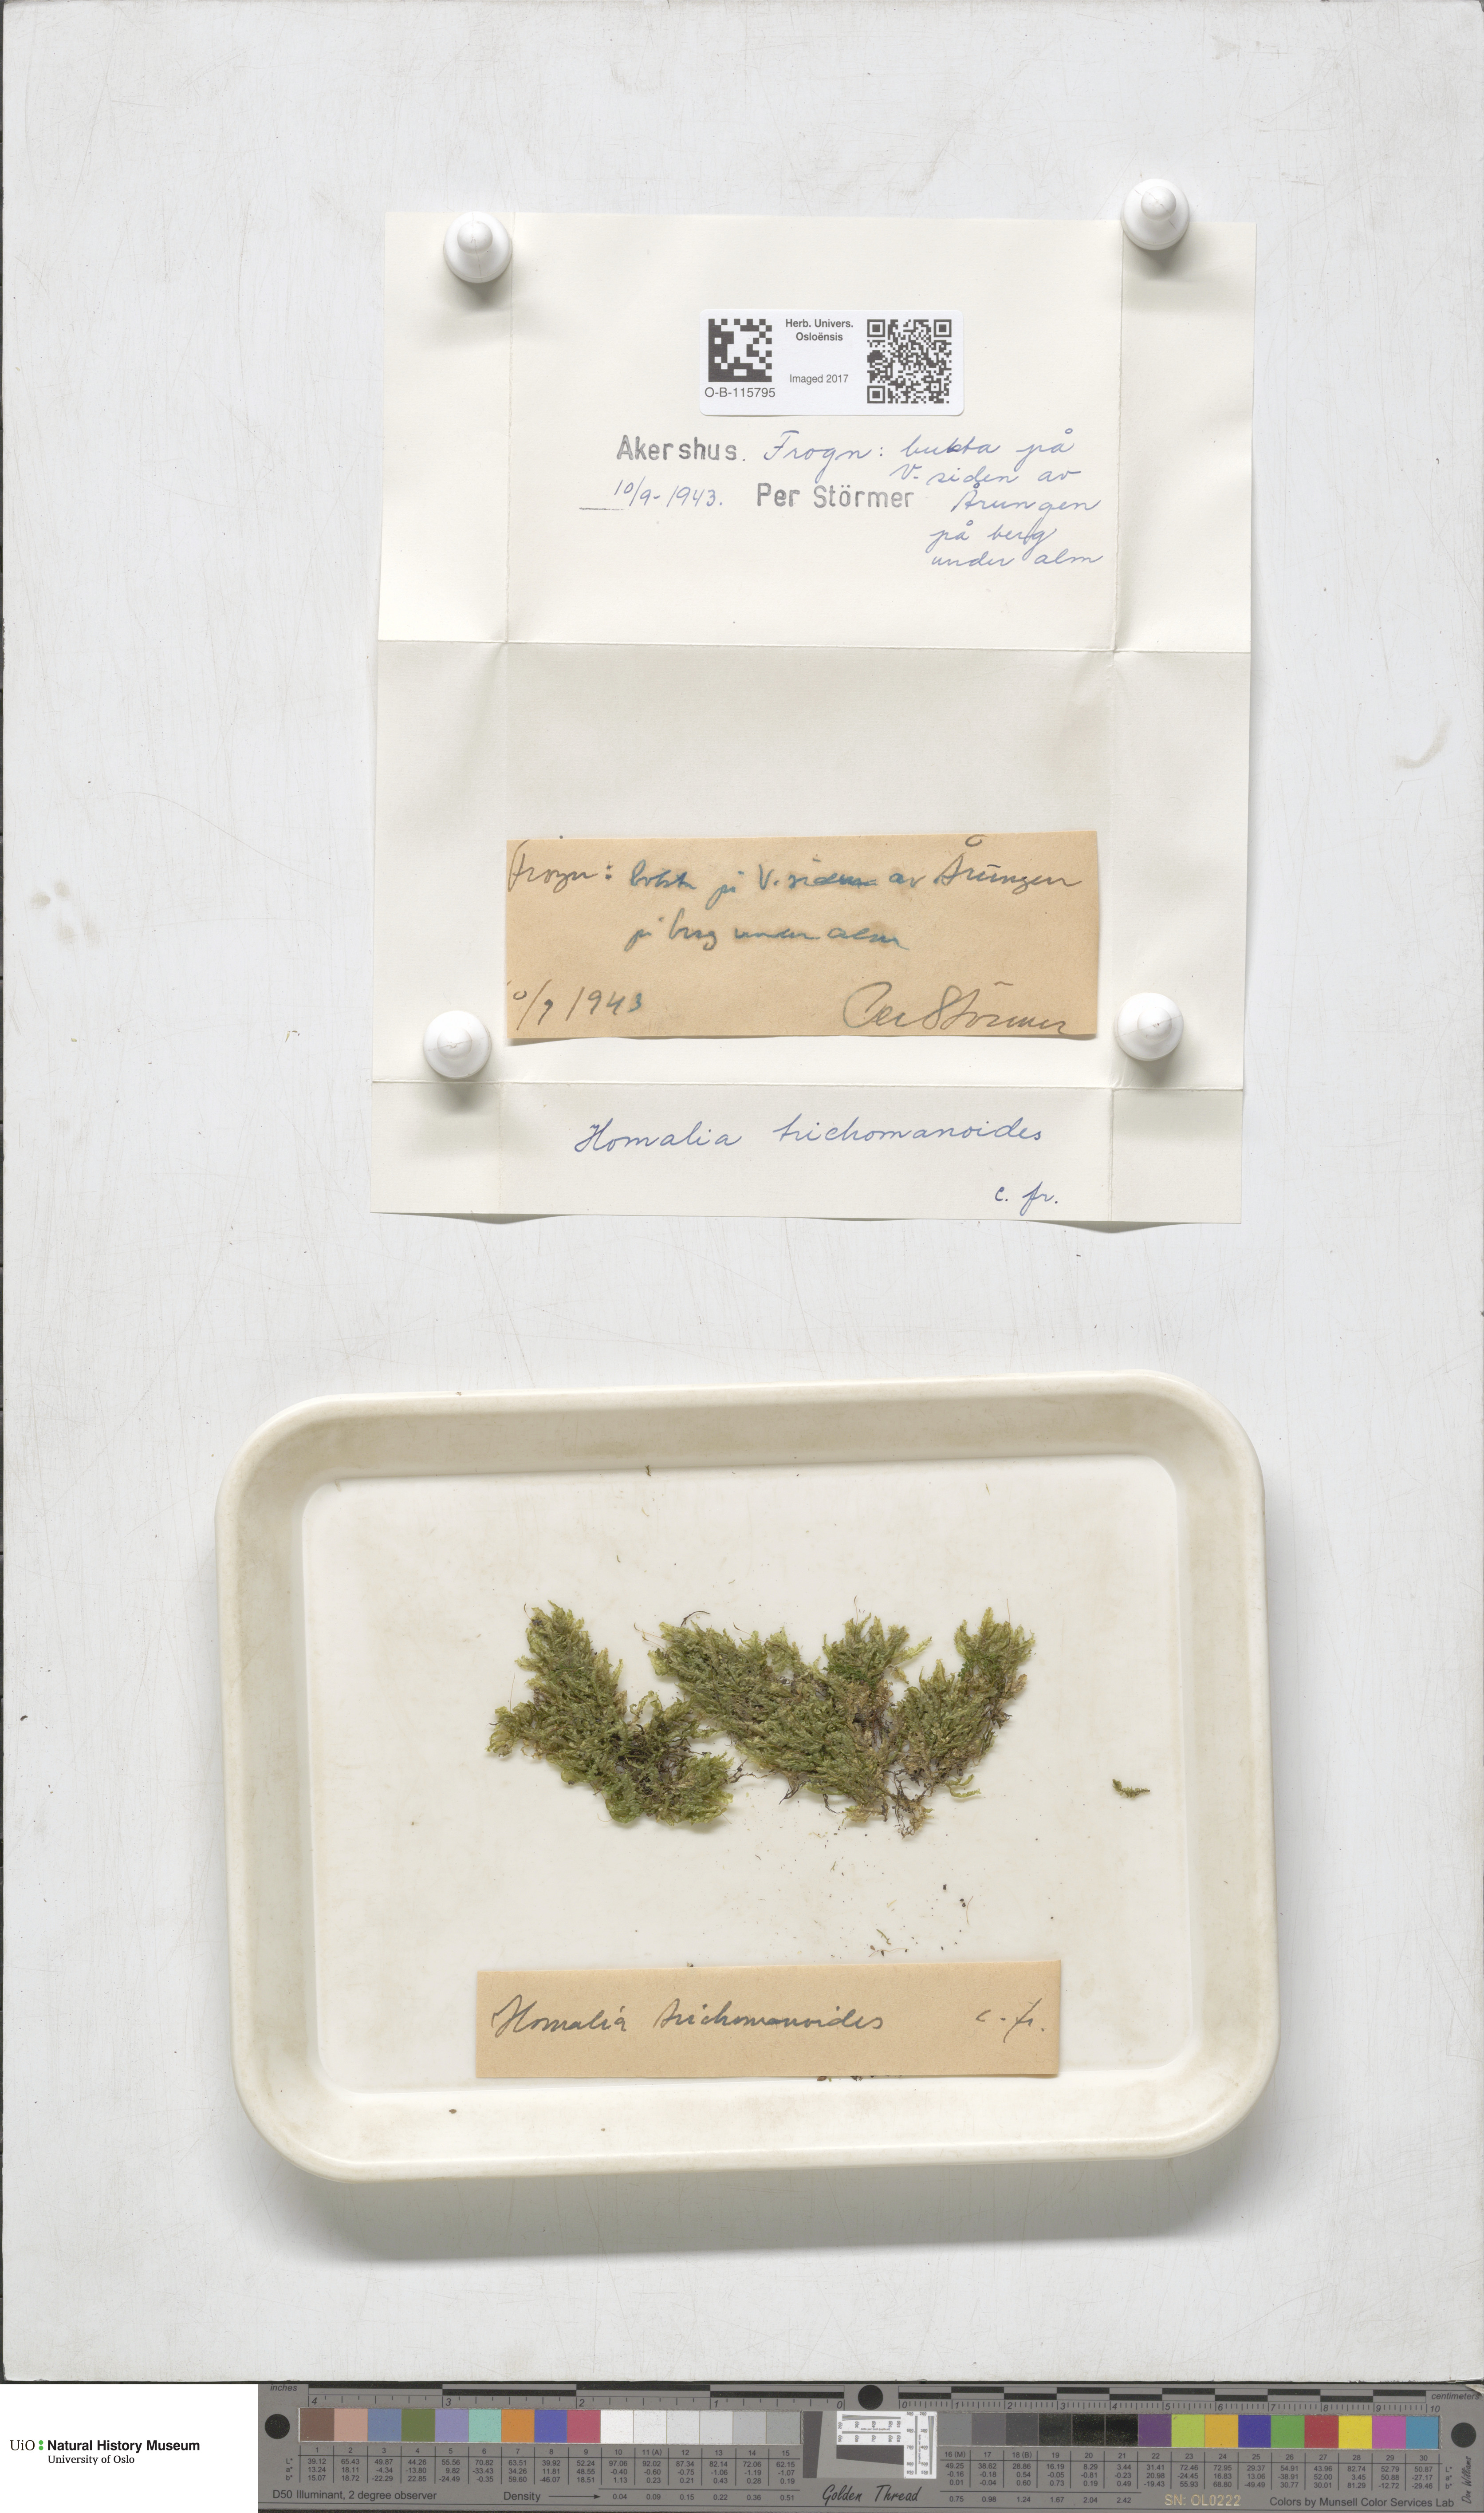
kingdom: Plantae
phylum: Bryophyta
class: Bryopsida
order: Hypnales
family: Neckeraceae
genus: Homalia
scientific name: Homalia trichomanoides
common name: Lime homalia moss
